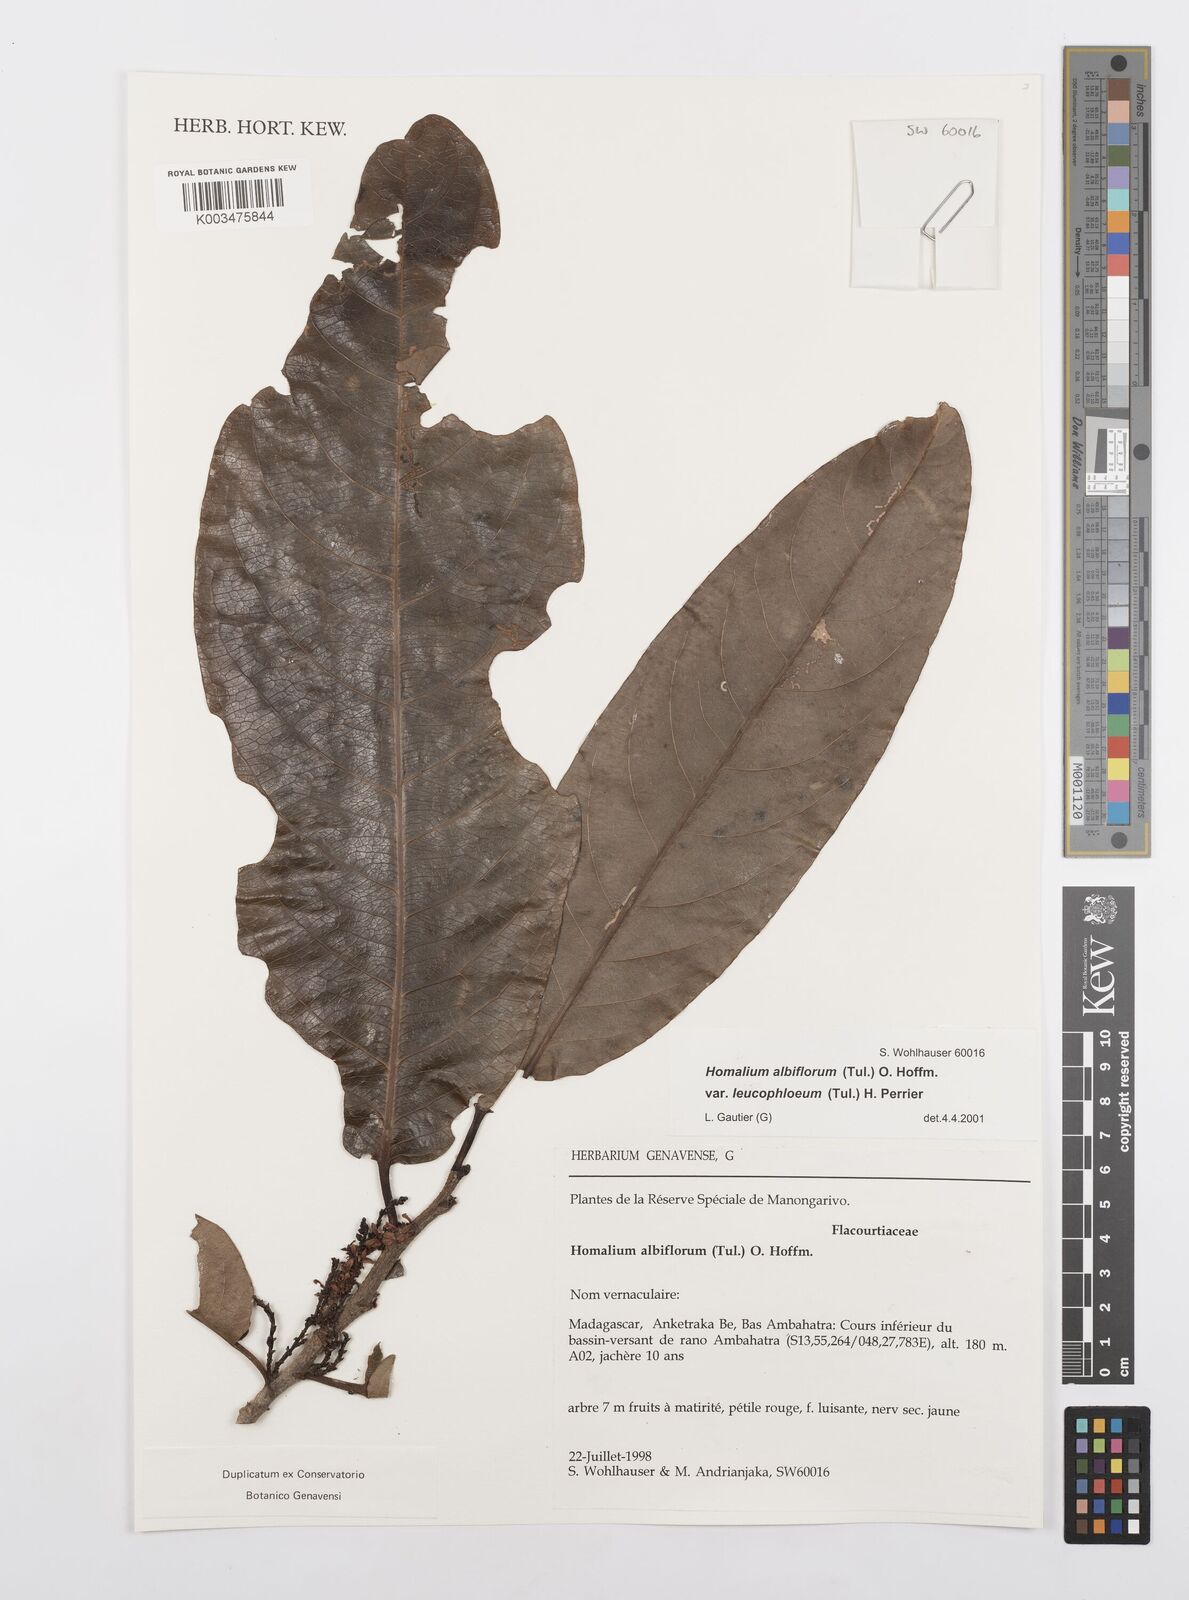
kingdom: Plantae
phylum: Tracheophyta
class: Magnoliopsida
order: Malpighiales
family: Salicaceae
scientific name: Salicaceae
